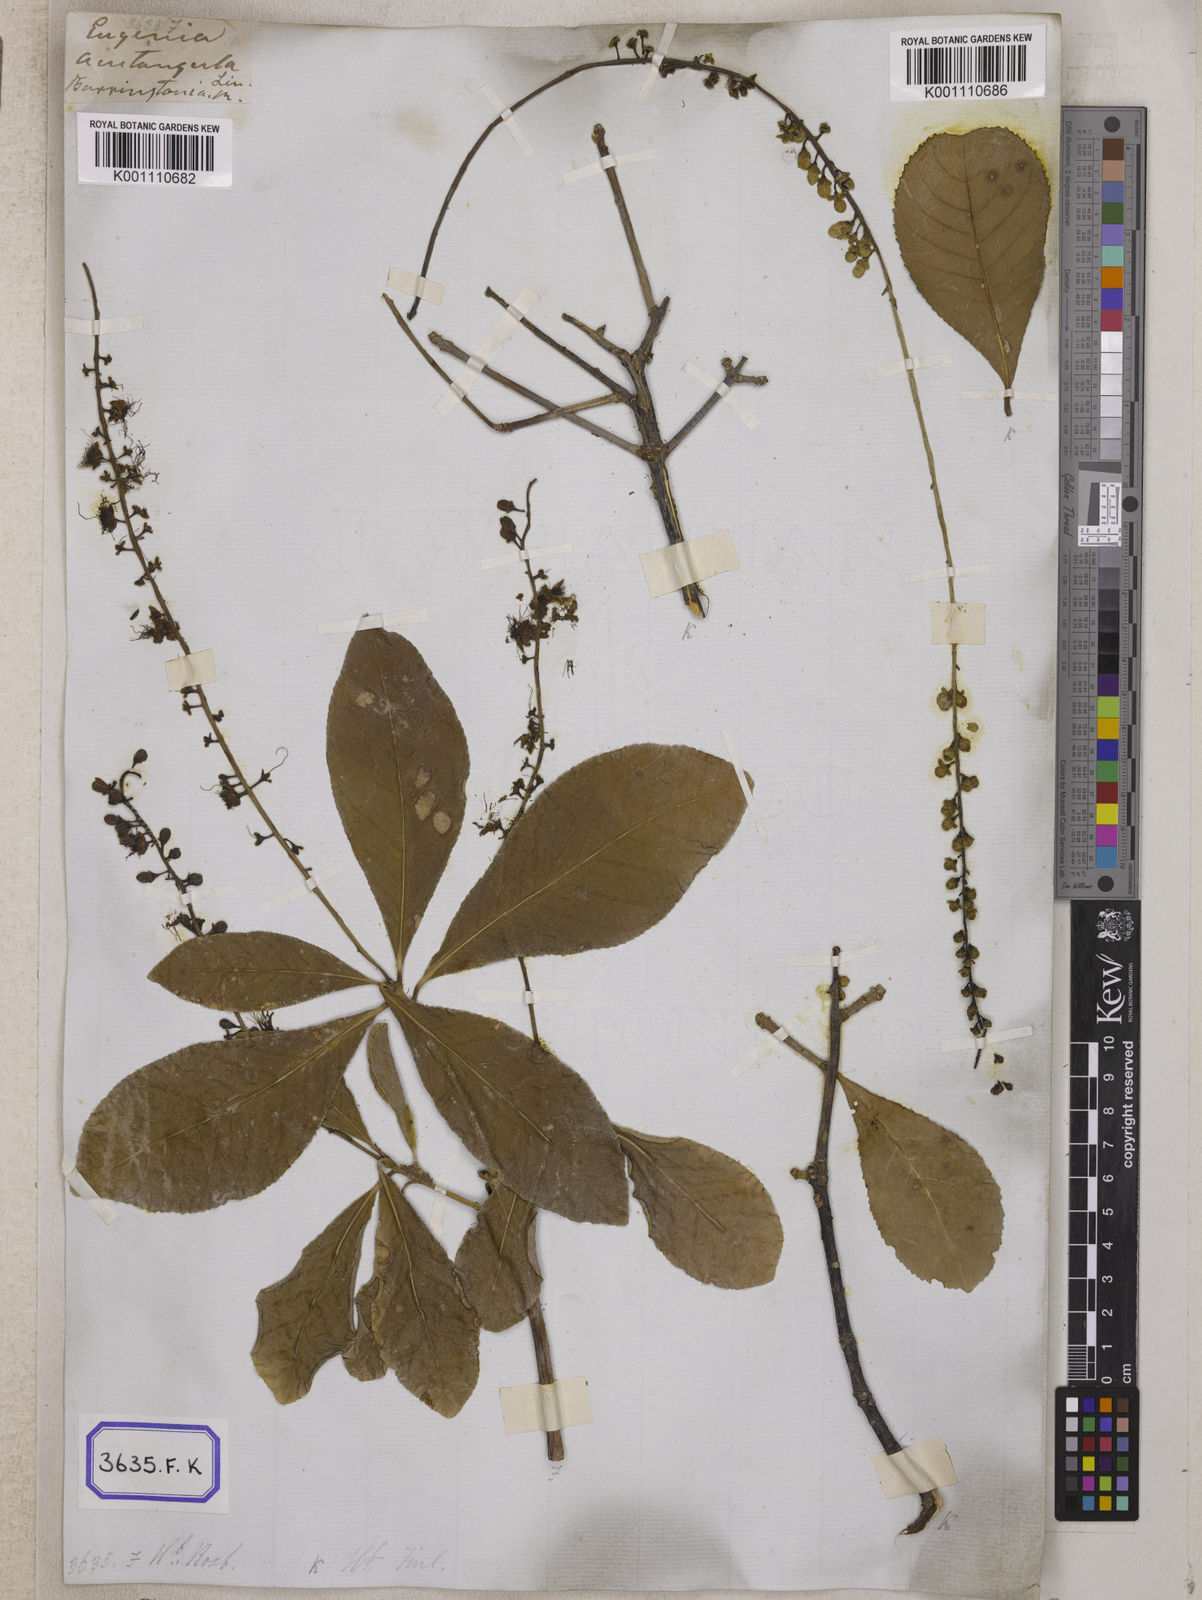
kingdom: Plantae
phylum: Tracheophyta
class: Magnoliopsida
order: Ericales
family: Lecythidaceae
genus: Barringtonia
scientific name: Barringtonia acutangula
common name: Freshwater mangrove
